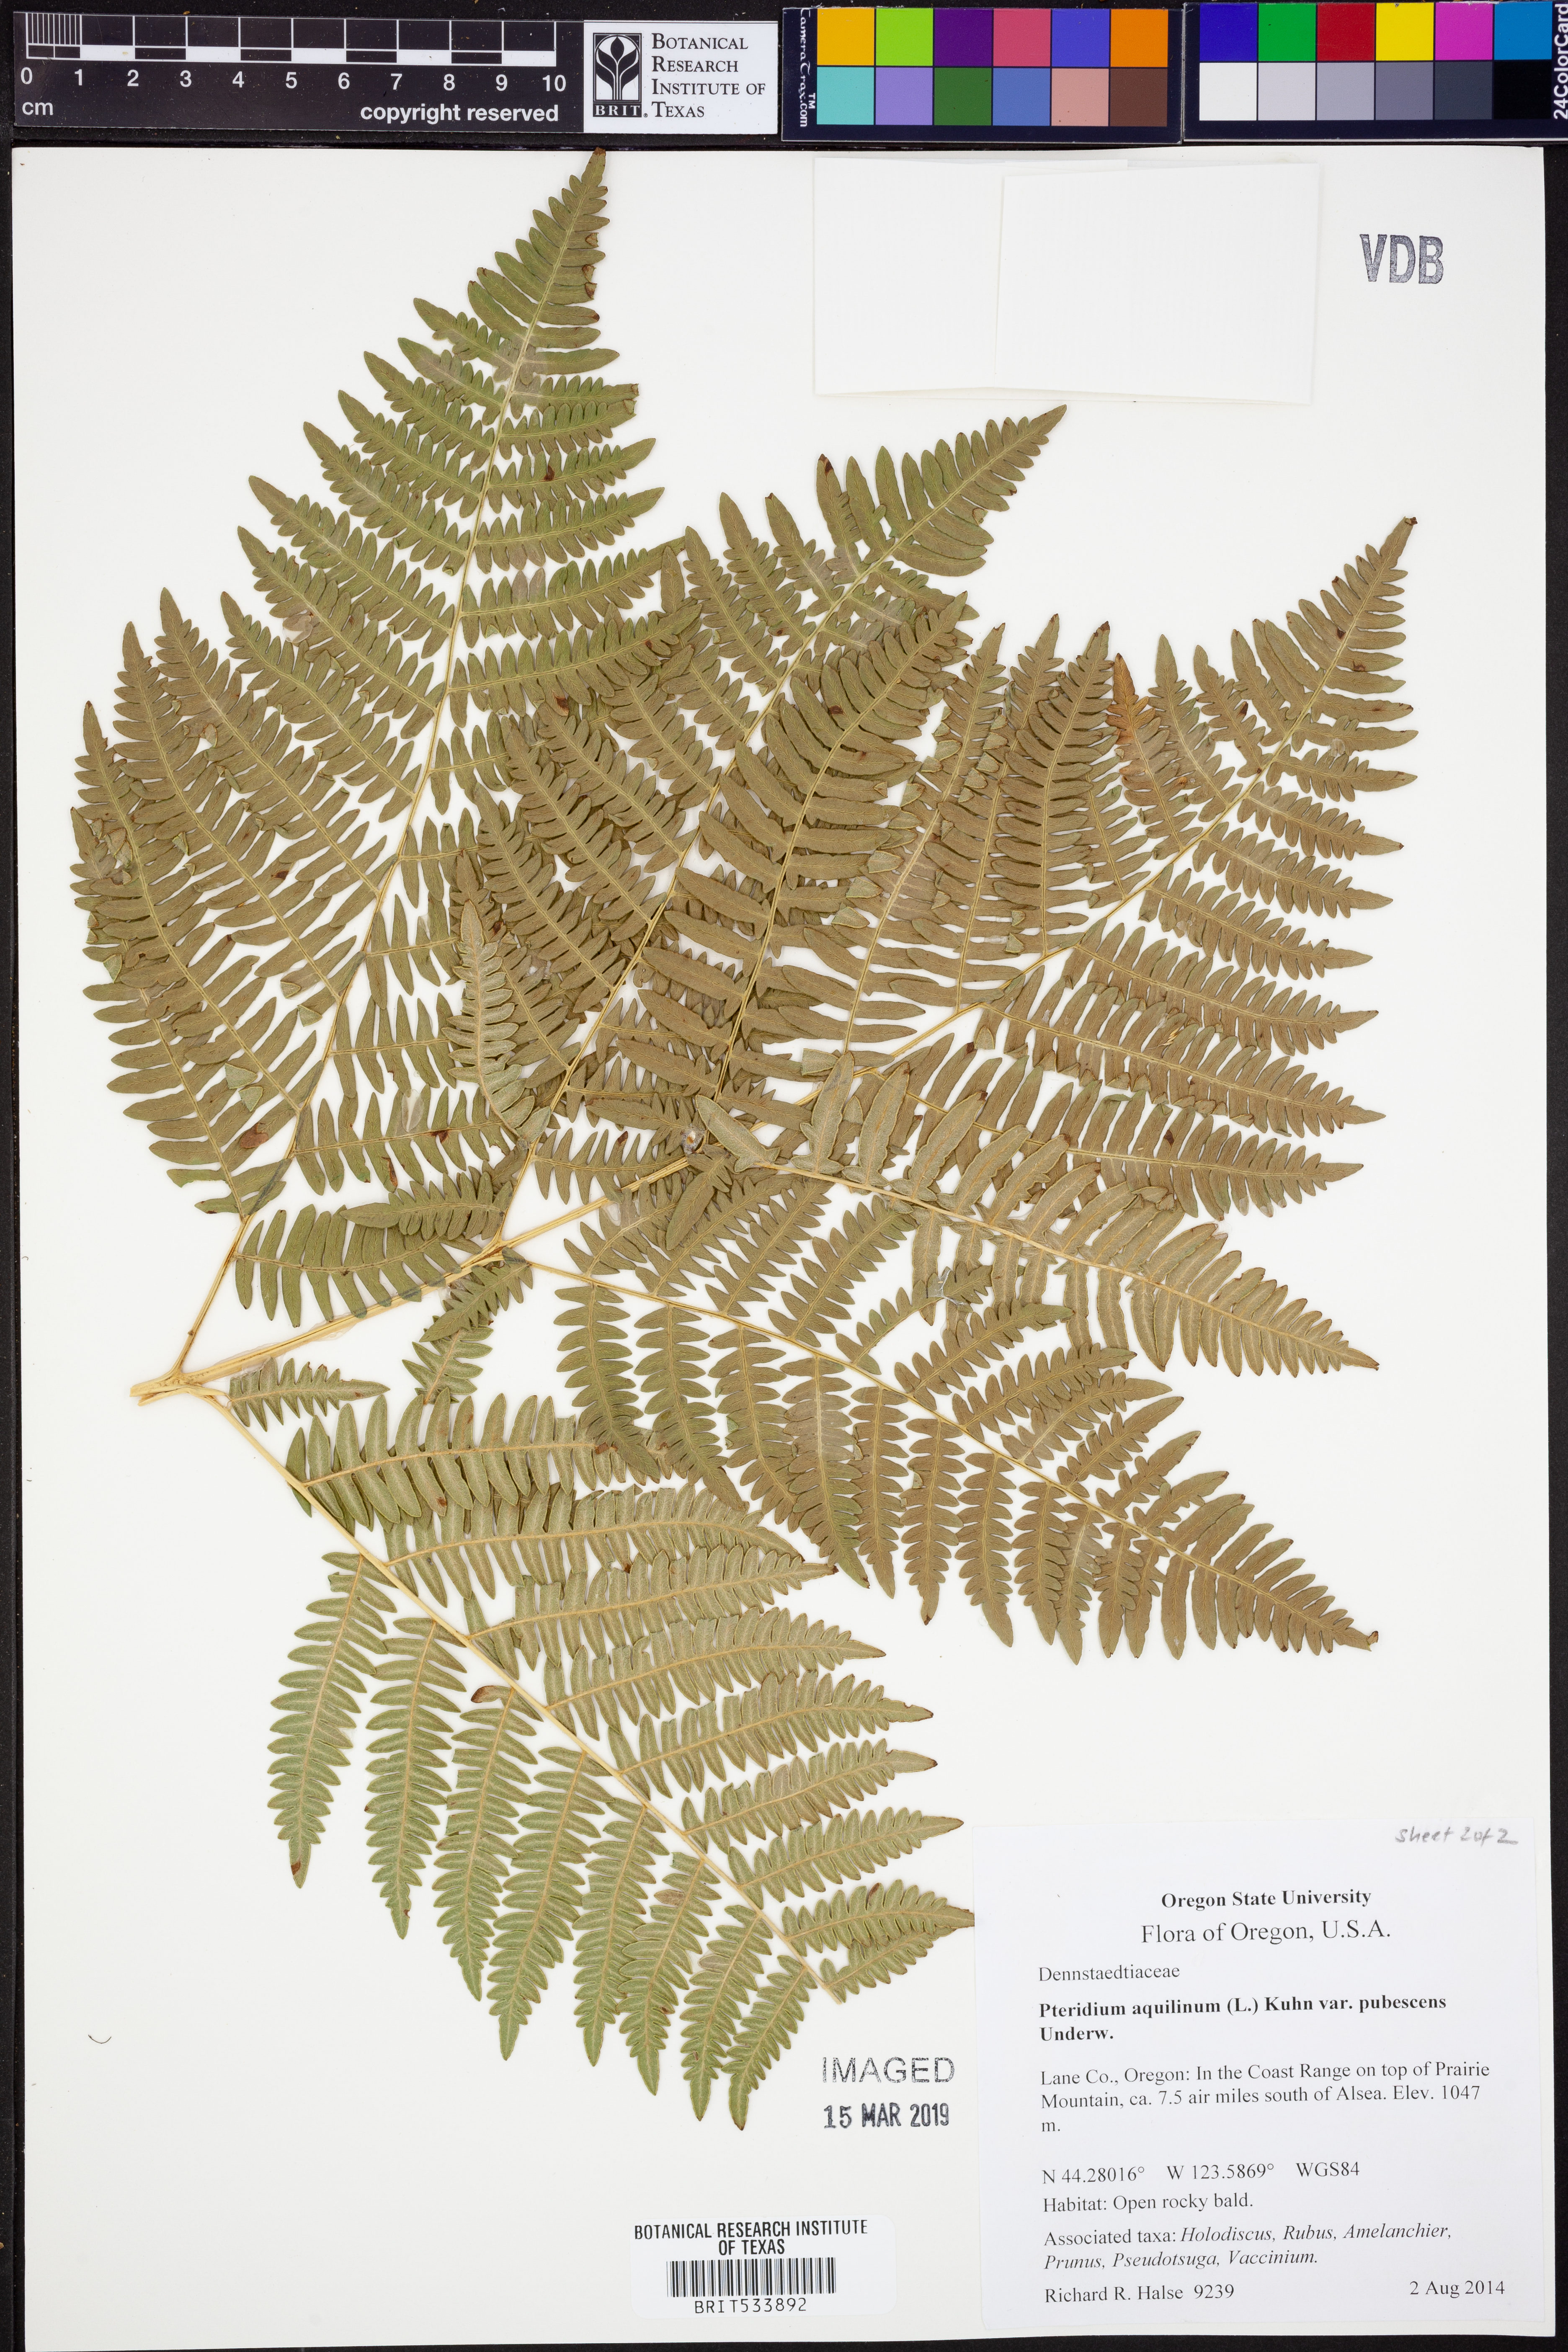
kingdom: Plantae
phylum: Tracheophyta
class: Polypodiopsida
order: Polypodiales
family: Dennstaedtiaceae
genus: Pteridium
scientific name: Pteridium aquilinum
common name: Bracken
